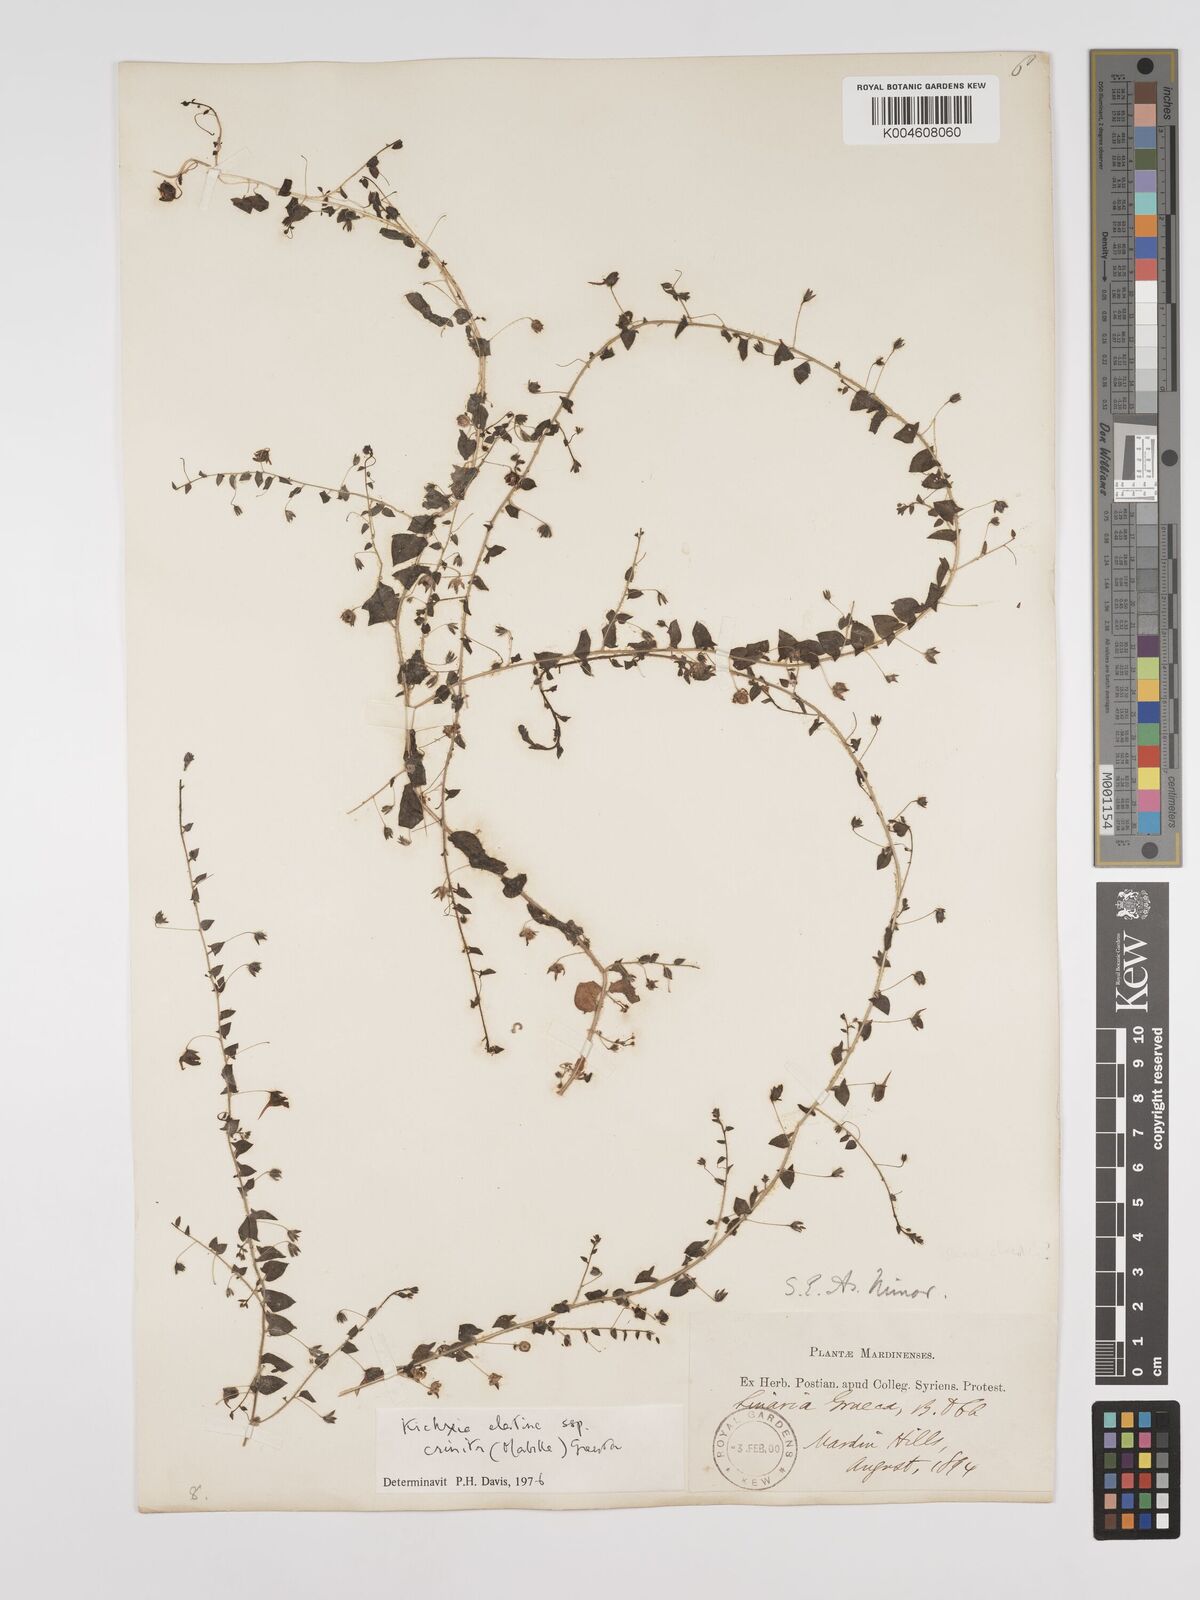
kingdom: Plantae
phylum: Tracheophyta
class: Magnoliopsida
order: Lamiales
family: Plantaginaceae
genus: Kickxia
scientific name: Kickxia elatine
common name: Sharp-leaved fluellen
